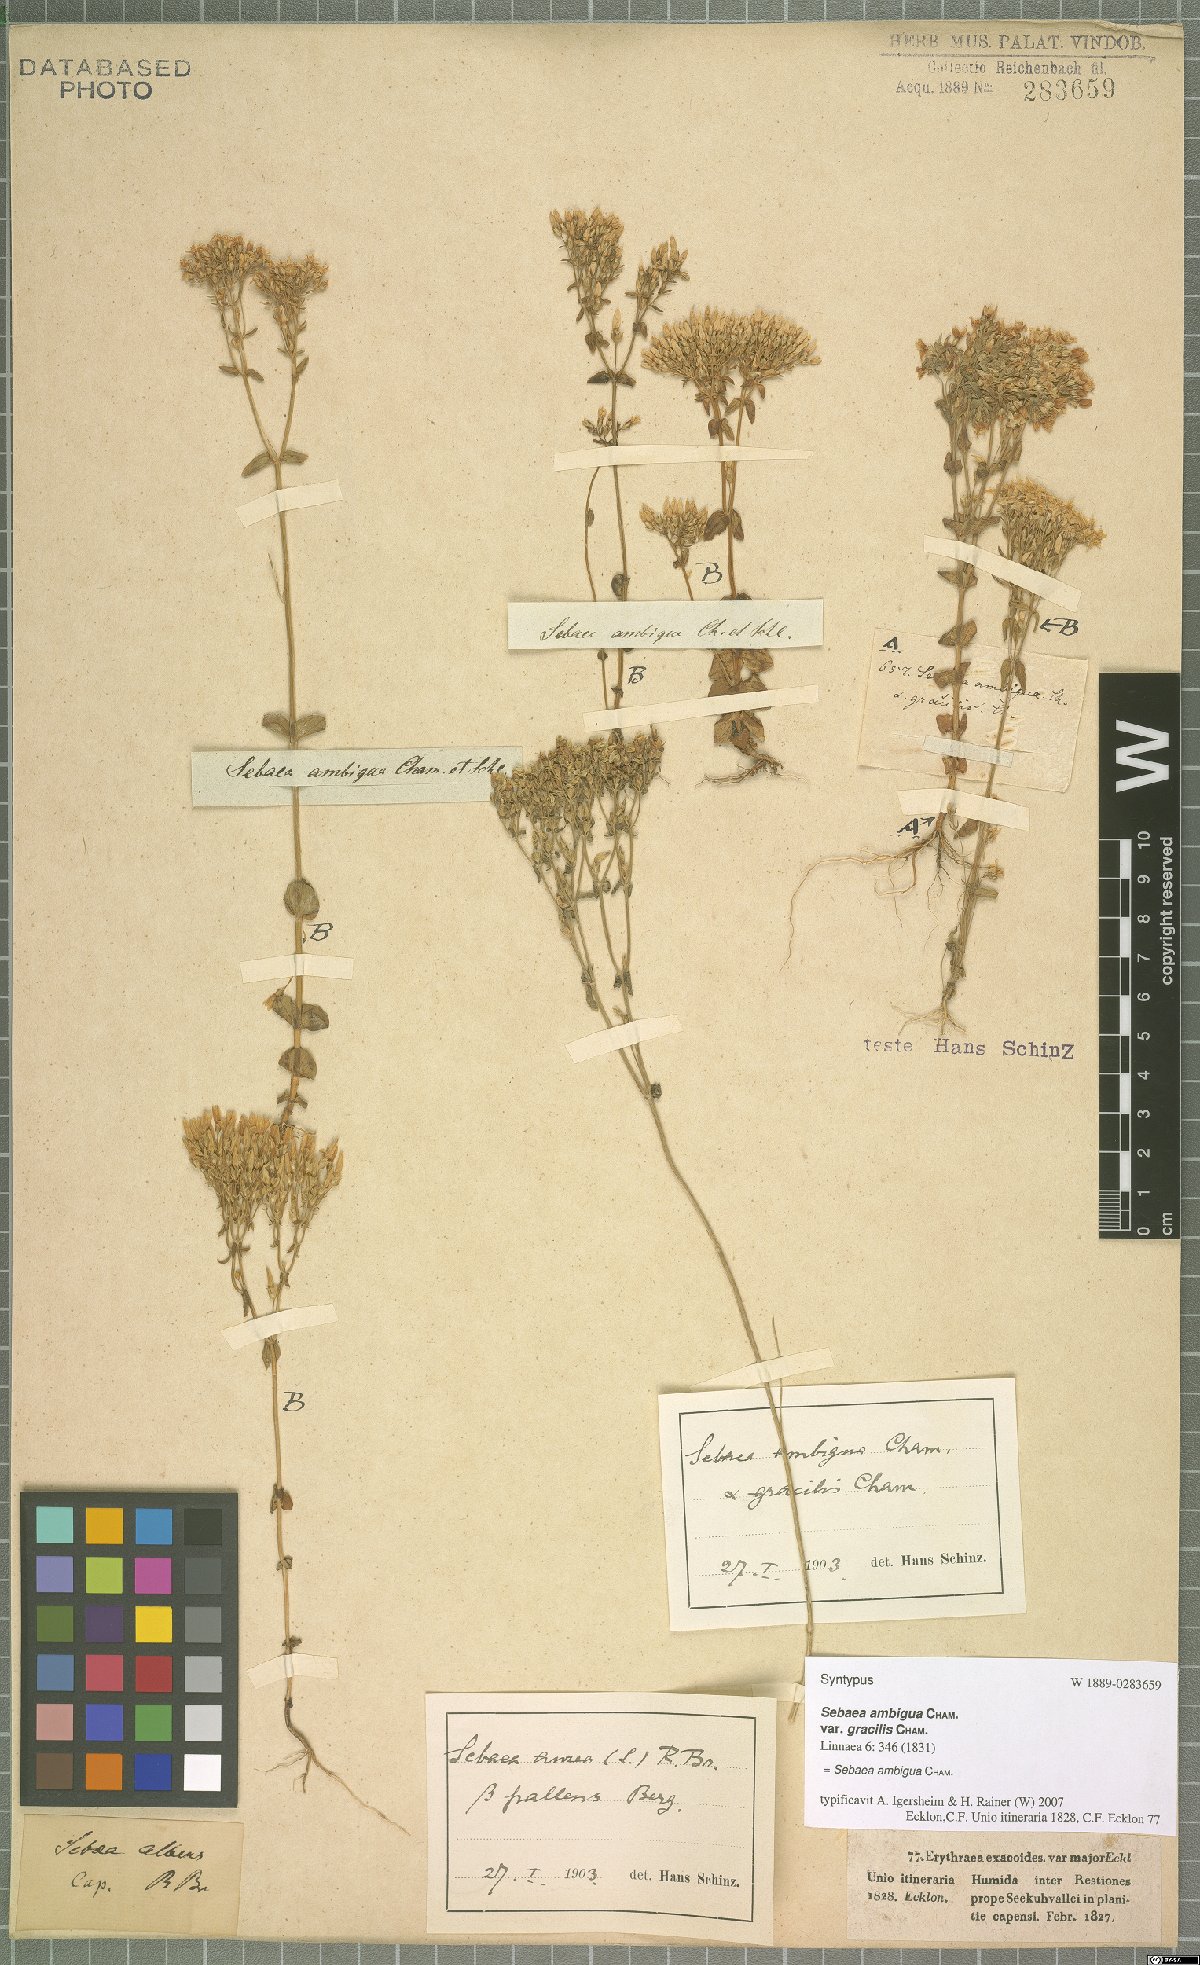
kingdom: Plantae
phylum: Tracheophyta
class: Magnoliopsida
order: Gentianales
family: Gentianaceae
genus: Sebaea
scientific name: Sebaea ambigua
